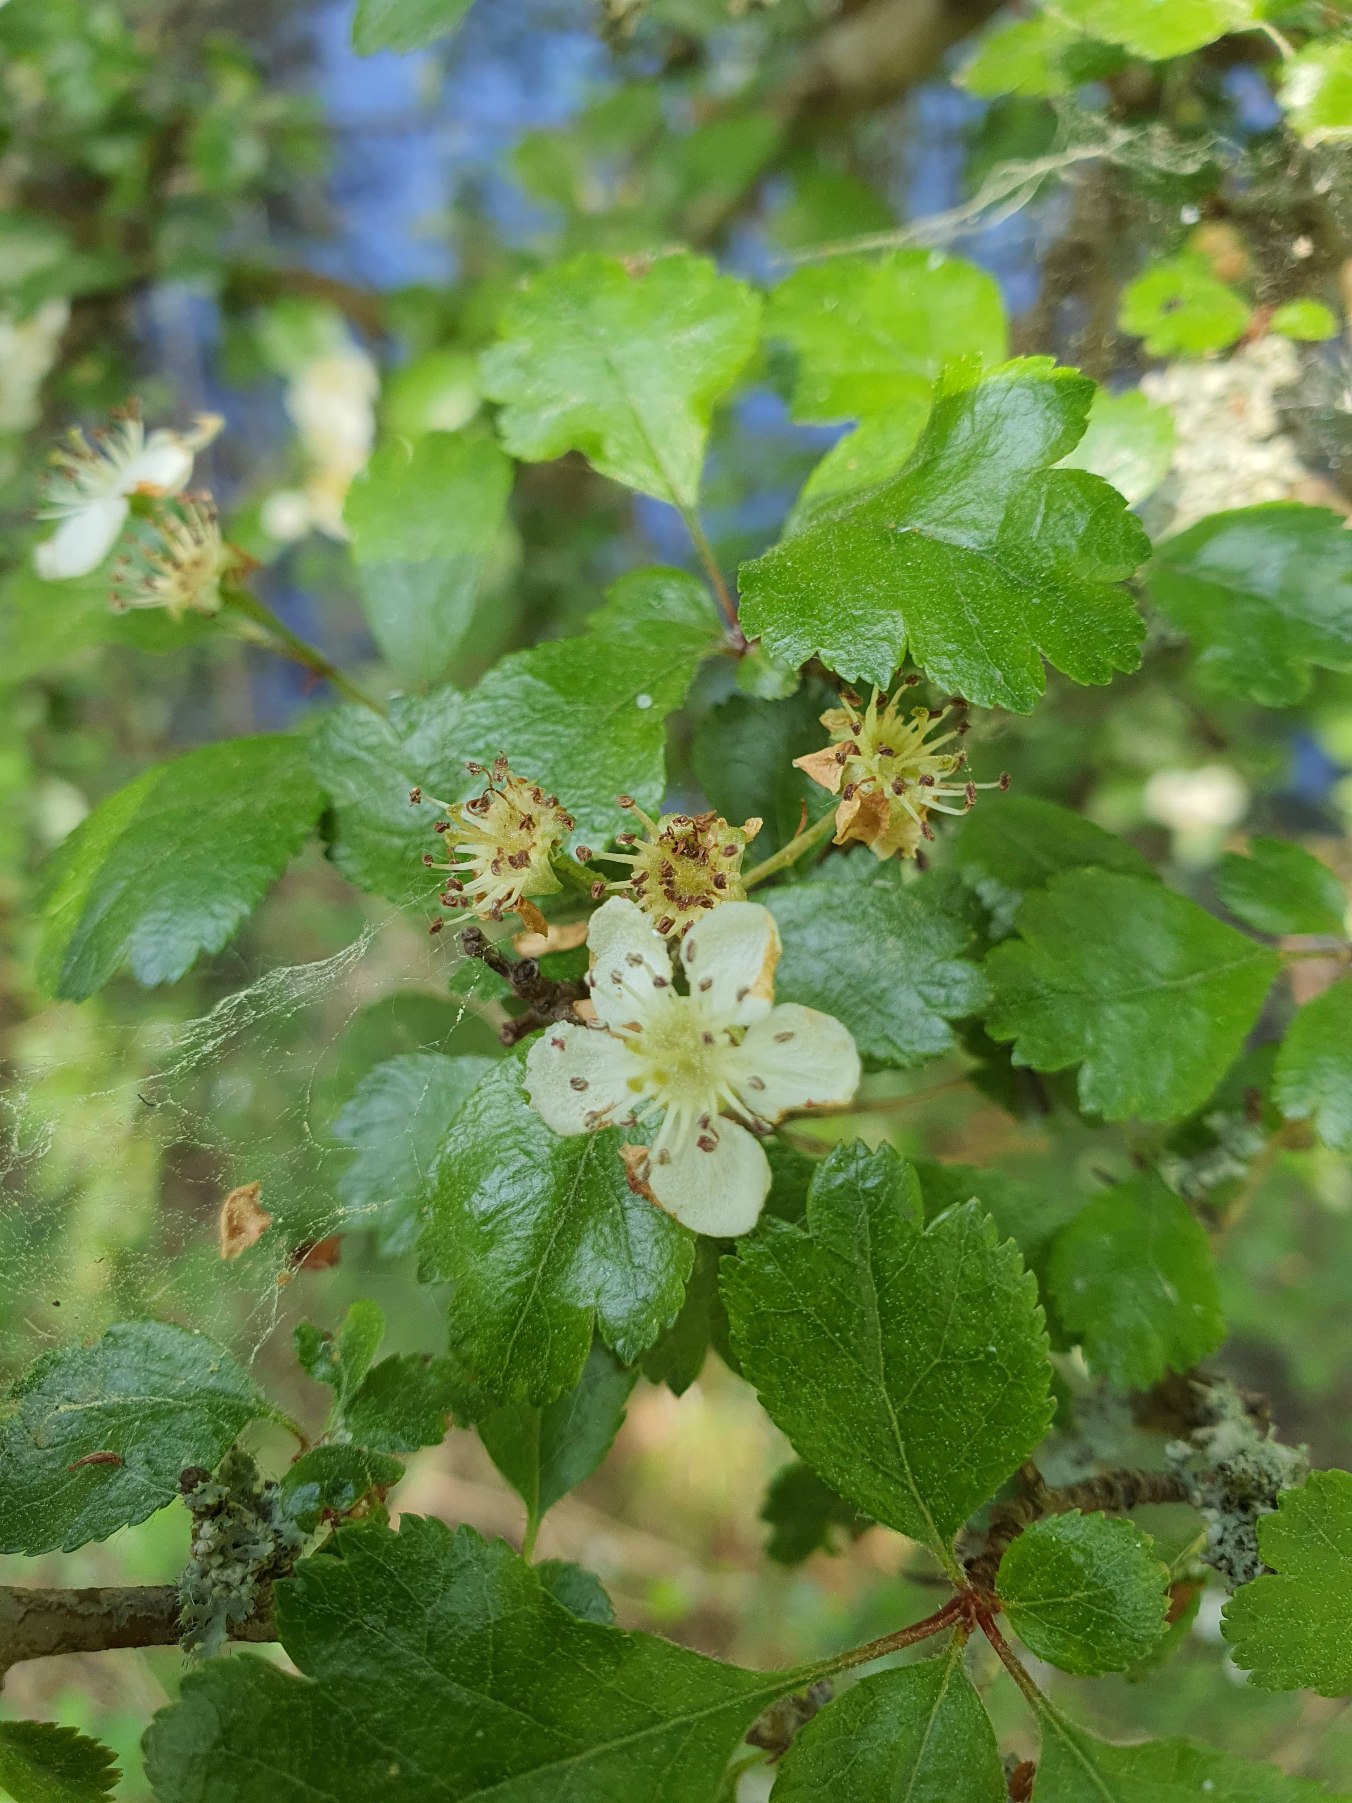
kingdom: Plantae
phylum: Tracheophyta
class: Magnoliopsida
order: Rosales
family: Rosaceae
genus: Crataegus
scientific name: Crataegus laevigata
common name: Almindelig hvidtjørn
